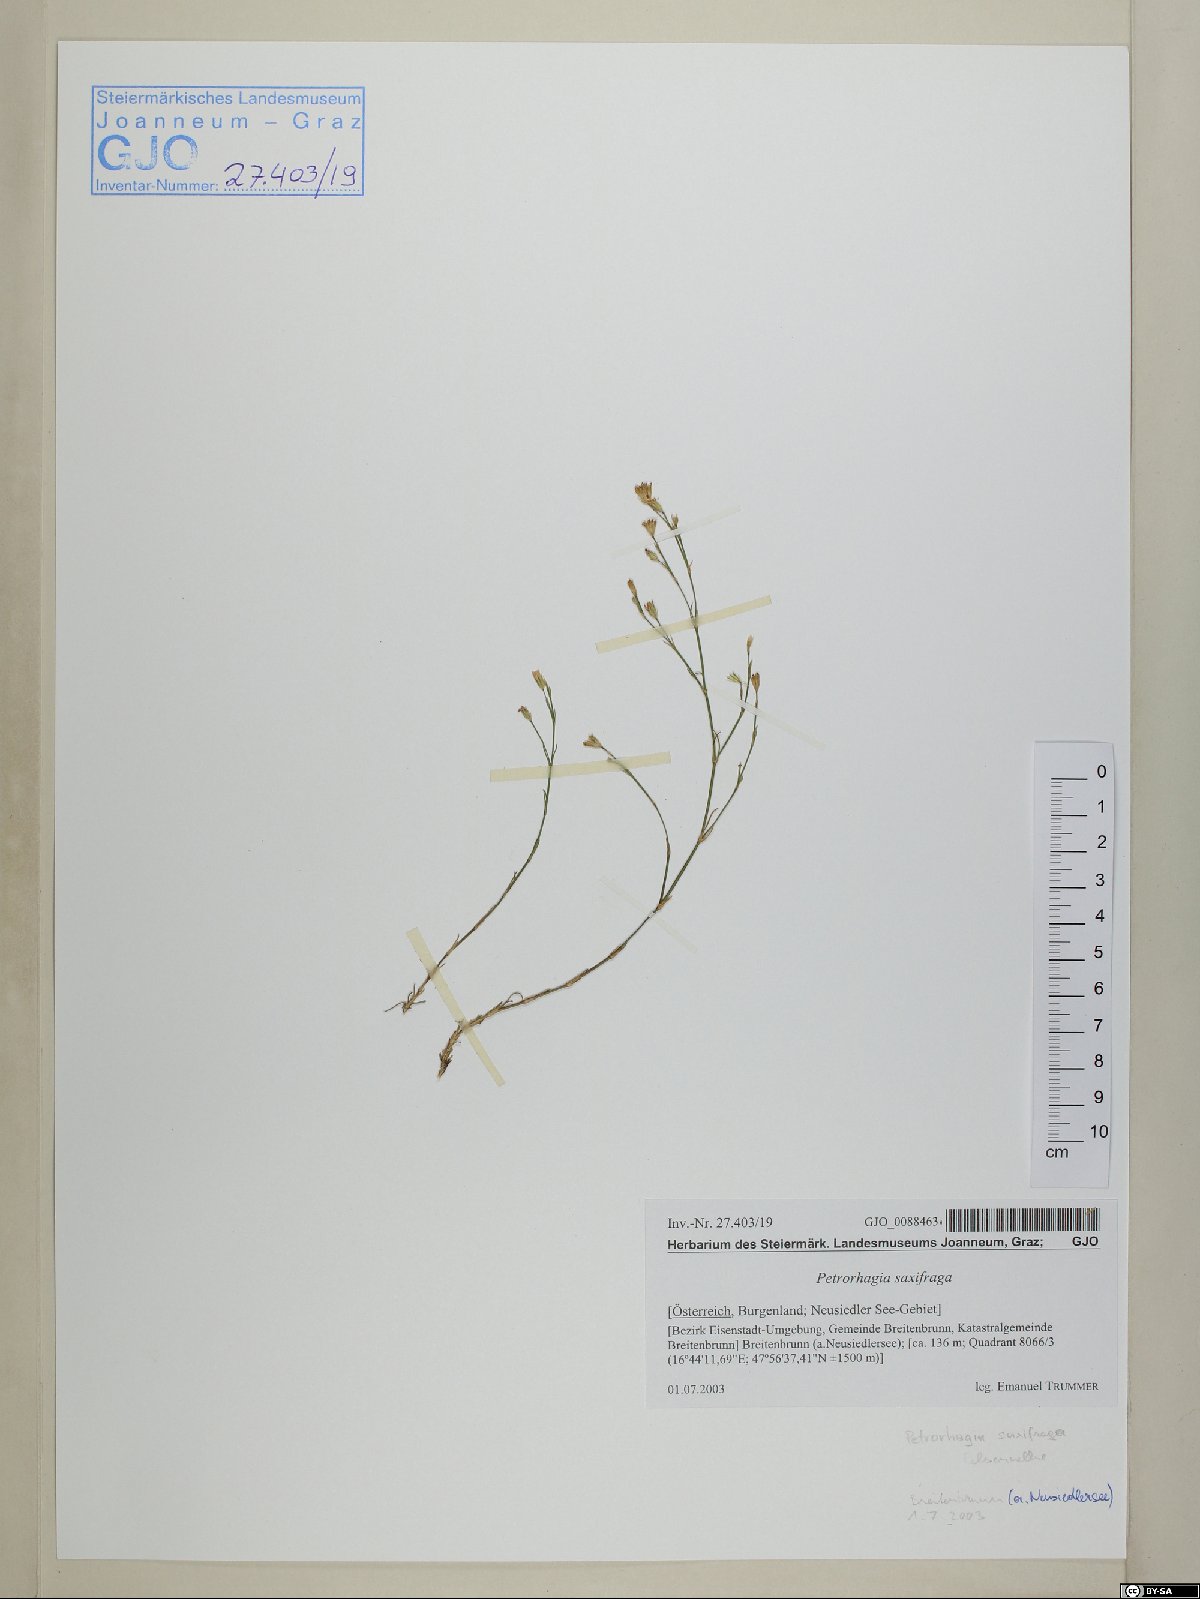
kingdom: Plantae
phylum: Tracheophyta
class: Magnoliopsida
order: Caryophyllales
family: Caryophyllaceae
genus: Petrorhagia
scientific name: Petrorhagia saxifraga
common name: Tunicflower
